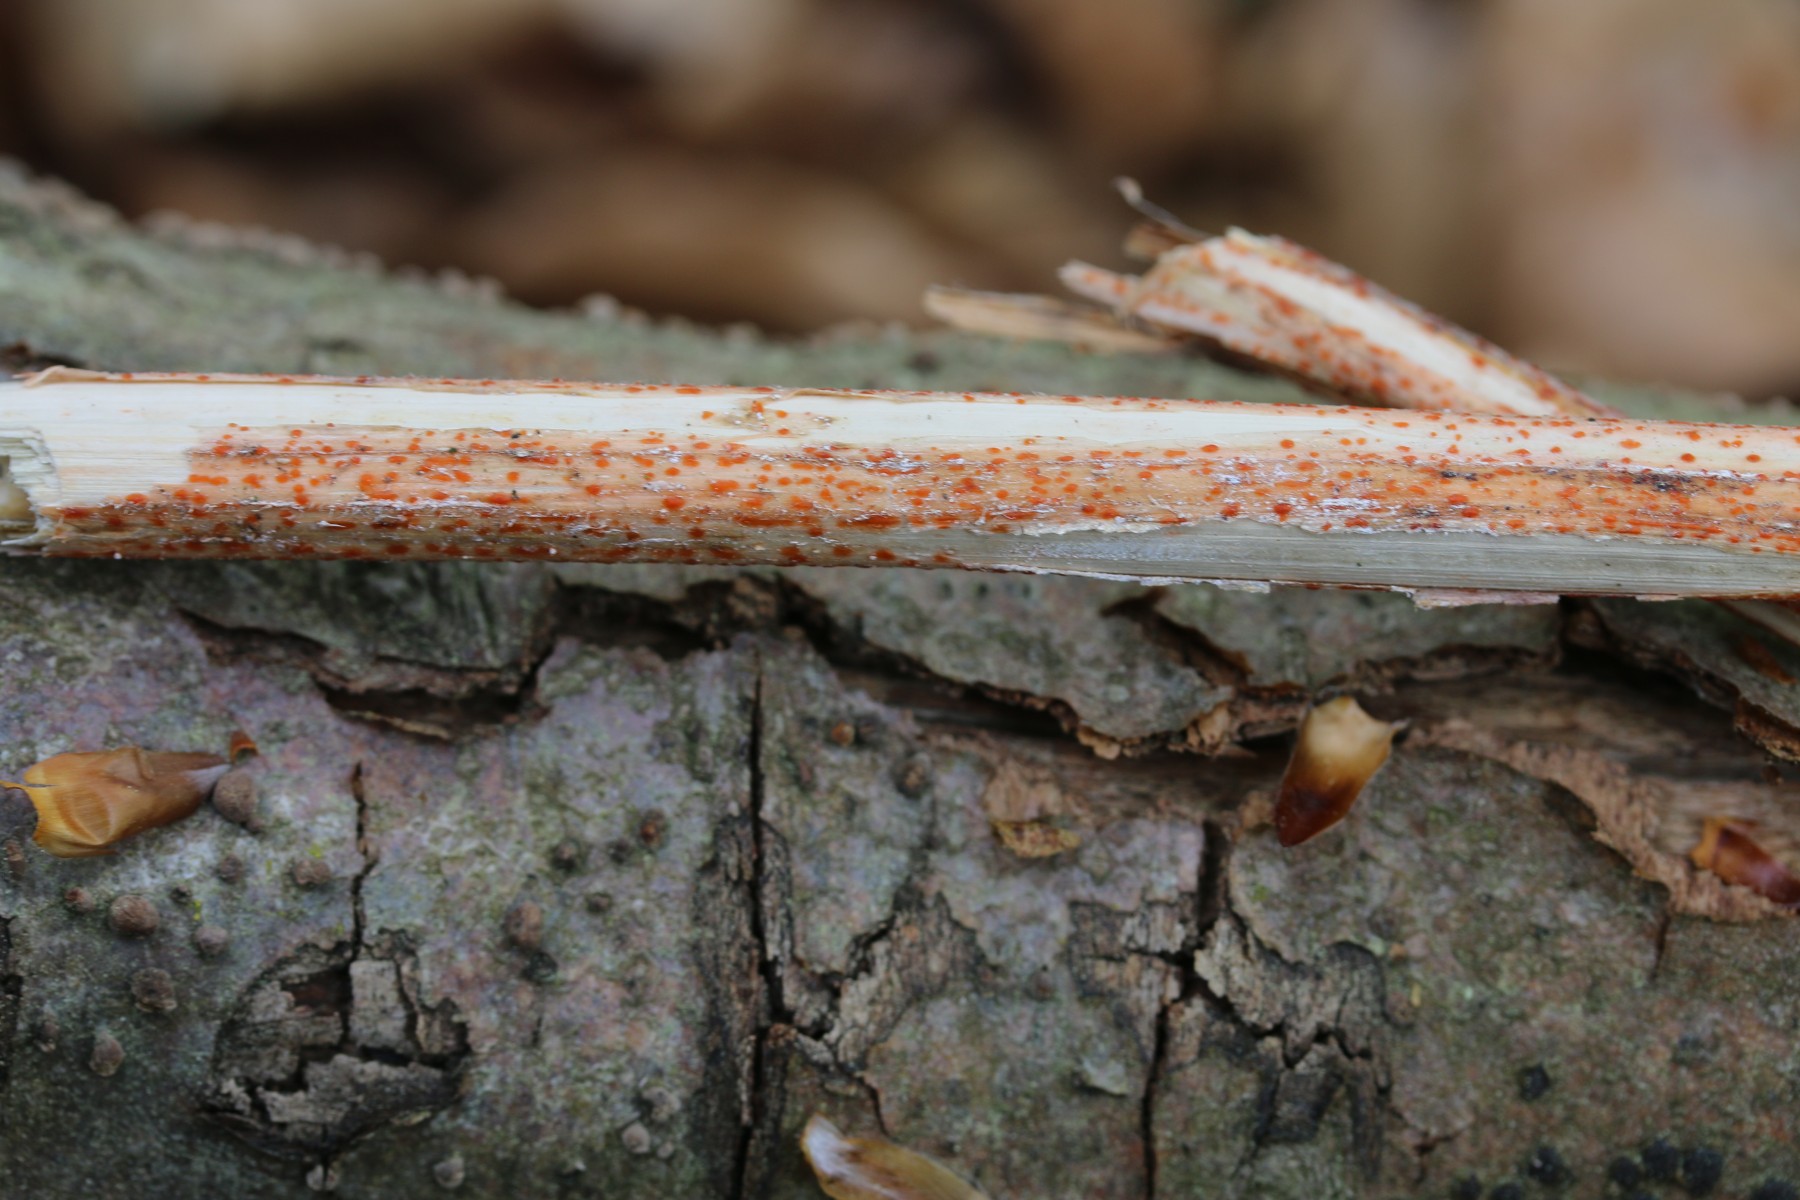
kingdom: Fungi
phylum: Ascomycota
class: Leotiomycetes
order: Helotiales
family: Calloriaceae
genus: Calloria
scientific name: Calloria urticae
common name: nælde-orangeskive
